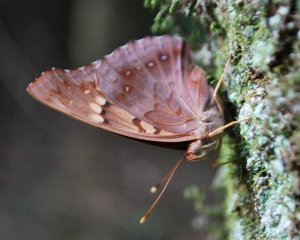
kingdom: Animalia
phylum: Arthropoda
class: Insecta
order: Lepidoptera
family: Nymphalidae
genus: Asterocampa
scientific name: Asterocampa clyton
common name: Tawny Emperor
